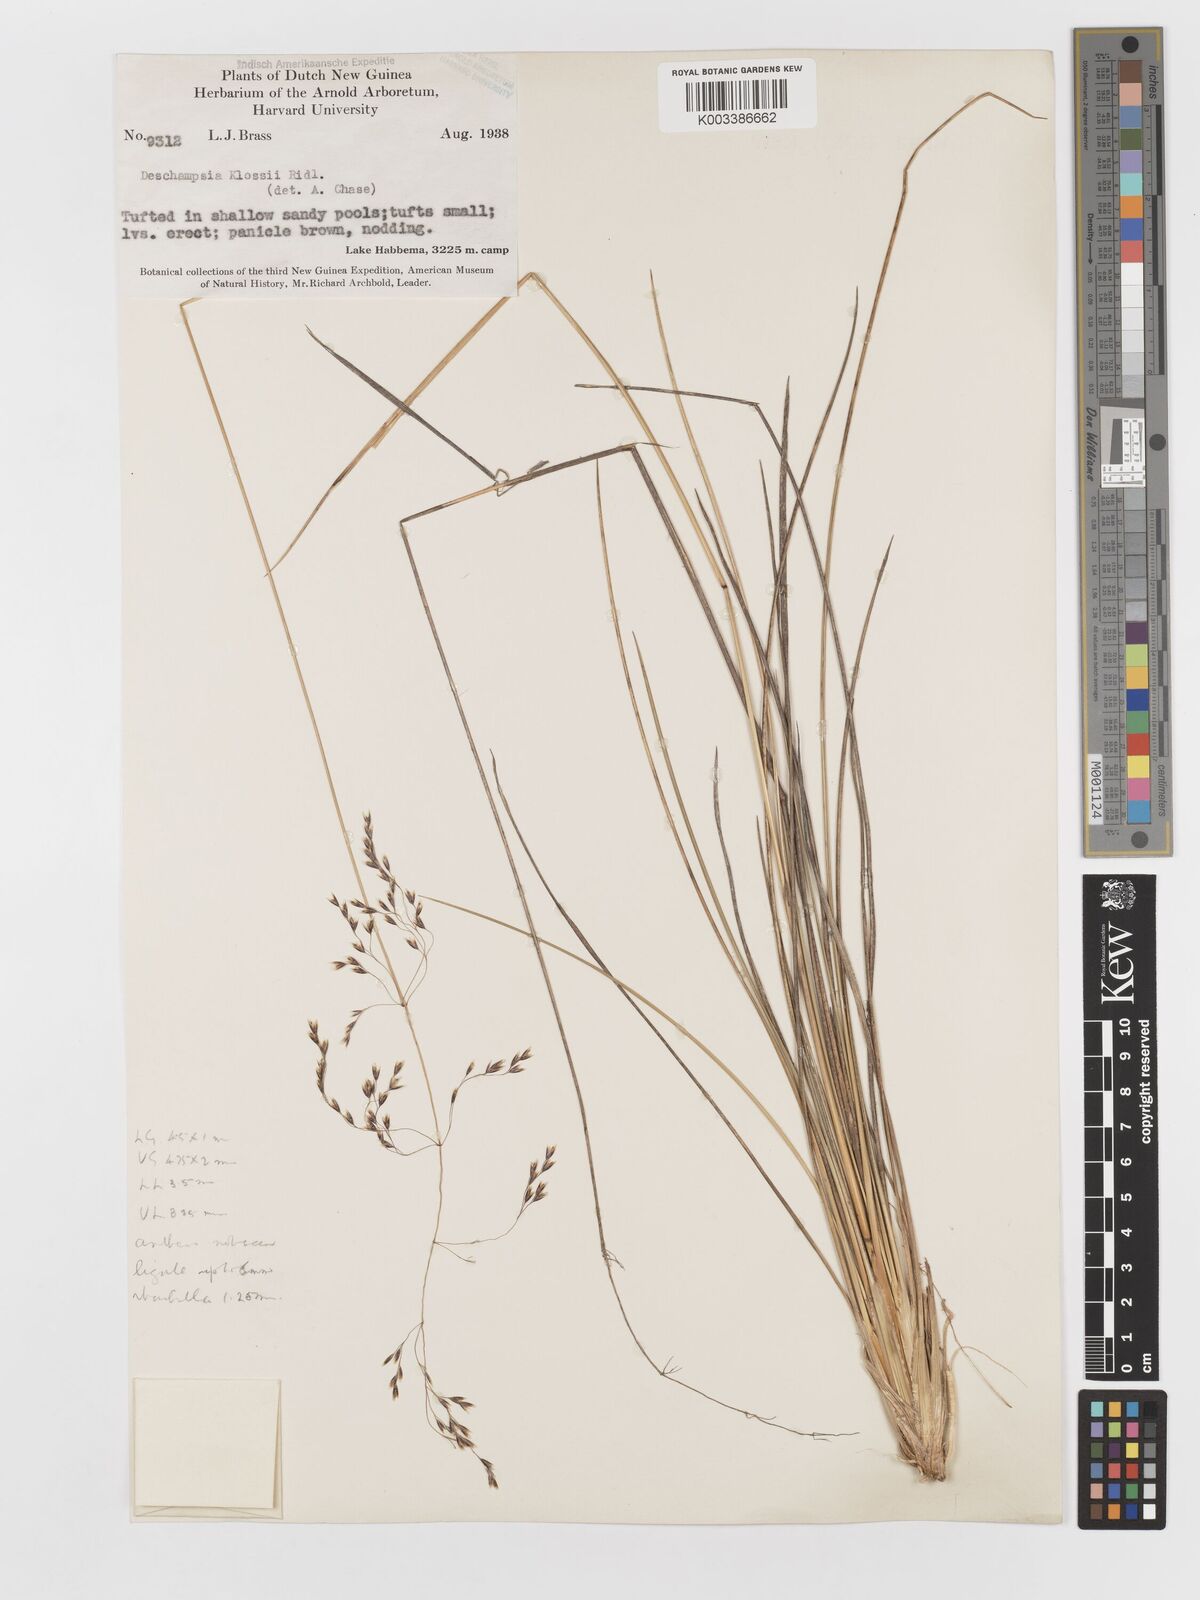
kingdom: Plantae
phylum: Tracheophyta
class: Liliopsida
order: Poales
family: Poaceae
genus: Deschampsia
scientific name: Deschampsia klossii
